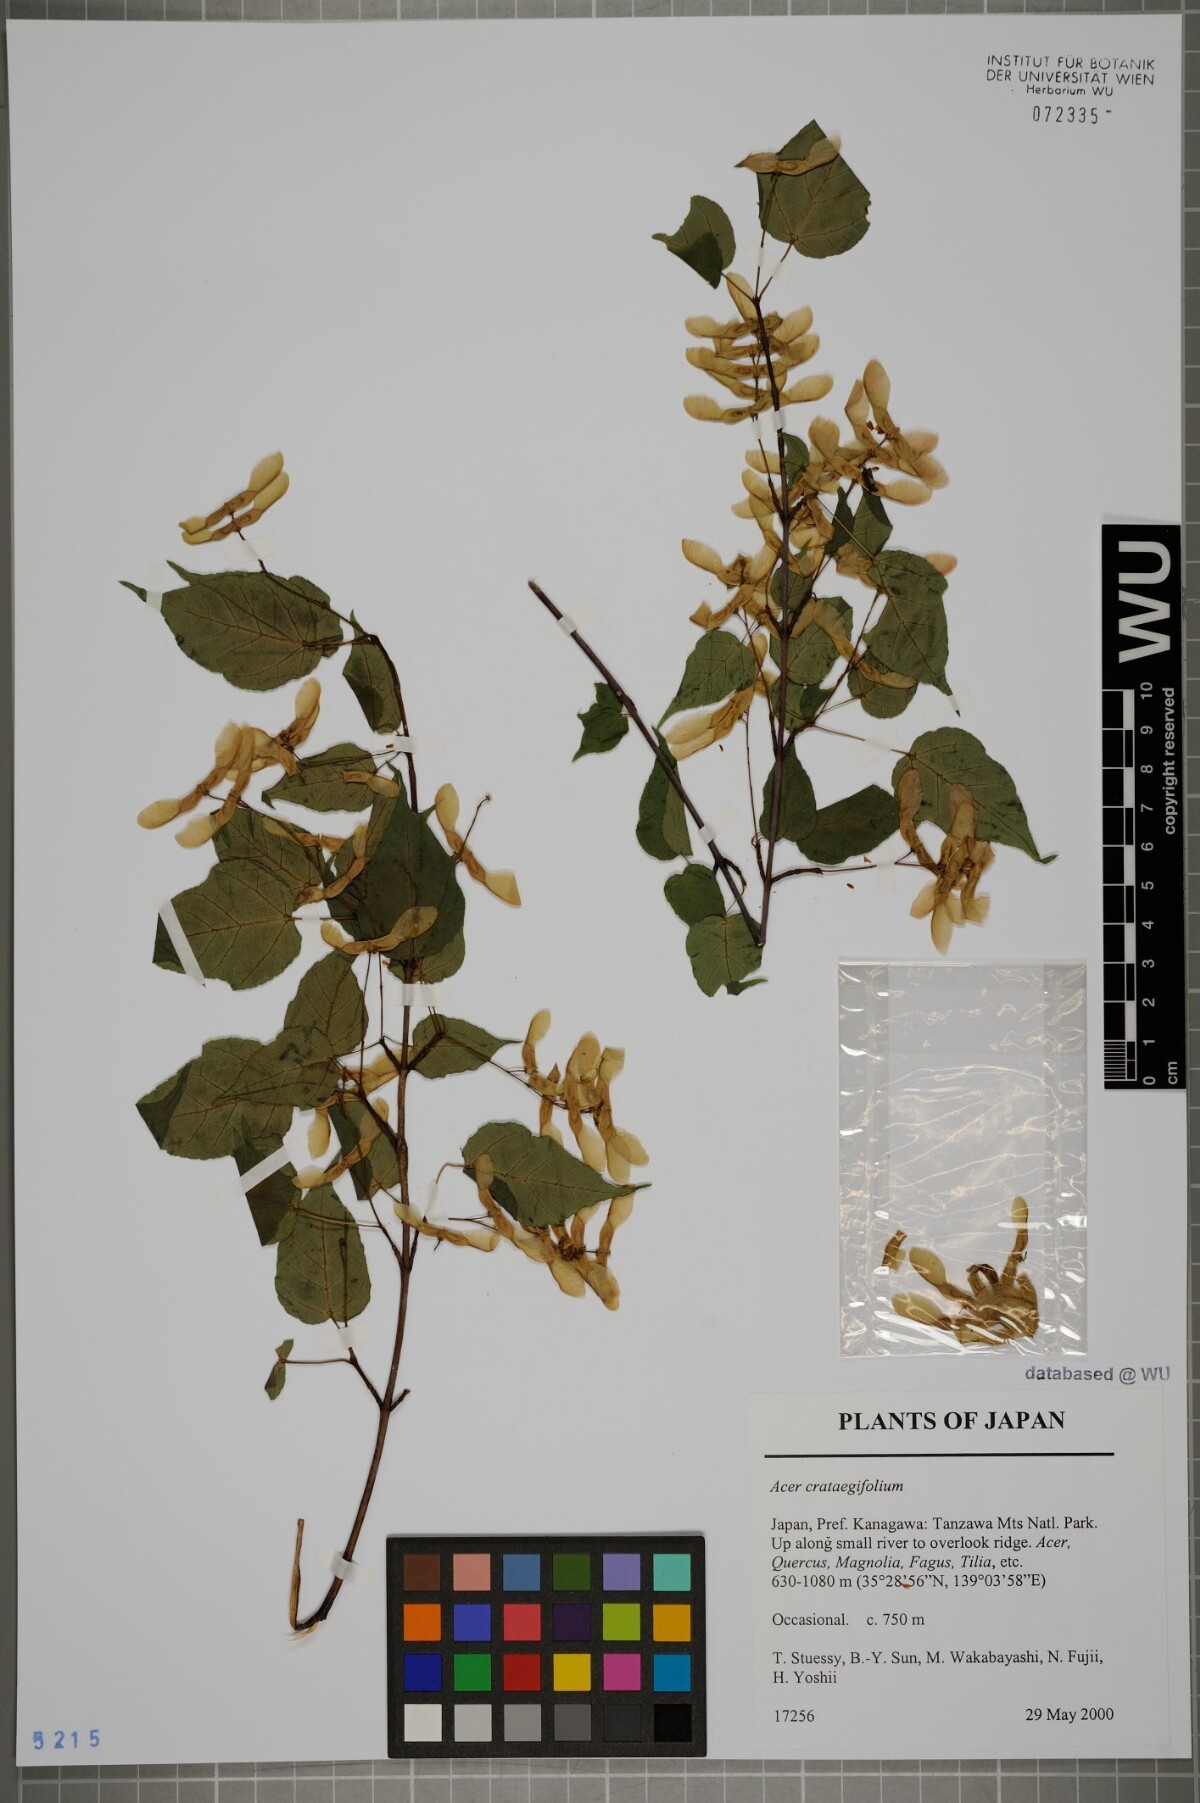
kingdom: Plantae
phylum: Tracheophyta
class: Magnoliopsida
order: Sapindales
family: Sapindaceae
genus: Acer
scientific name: Acer crataegifolium
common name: Hawthorn-leaf maple
